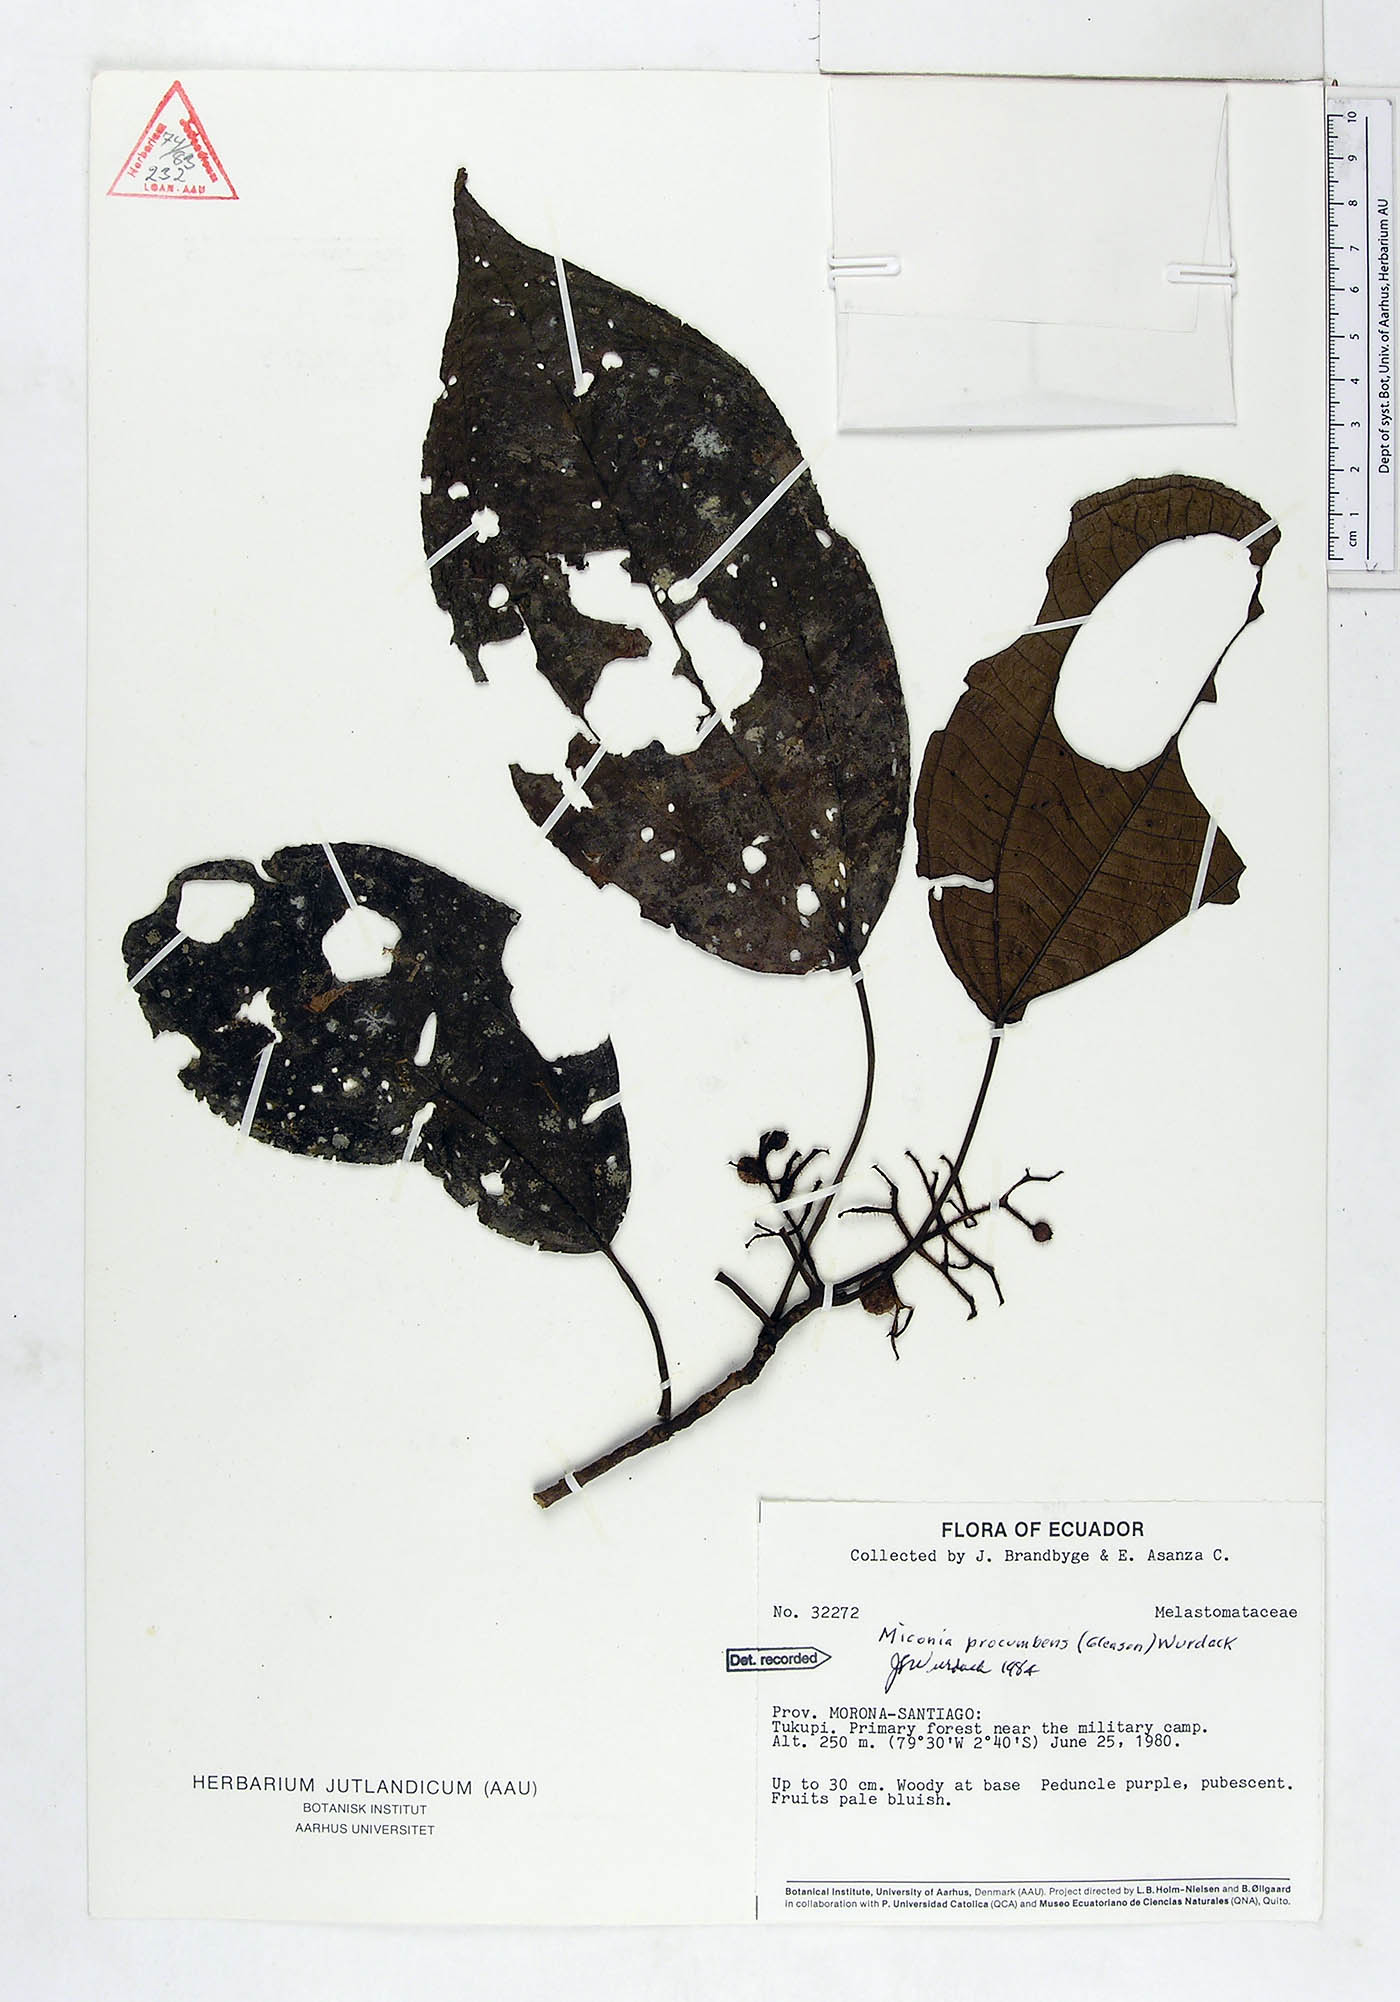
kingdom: Plantae
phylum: Tracheophyta
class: Magnoliopsida
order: Myrtales
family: Melastomataceae
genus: Miconia
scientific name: Miconia procumbens
